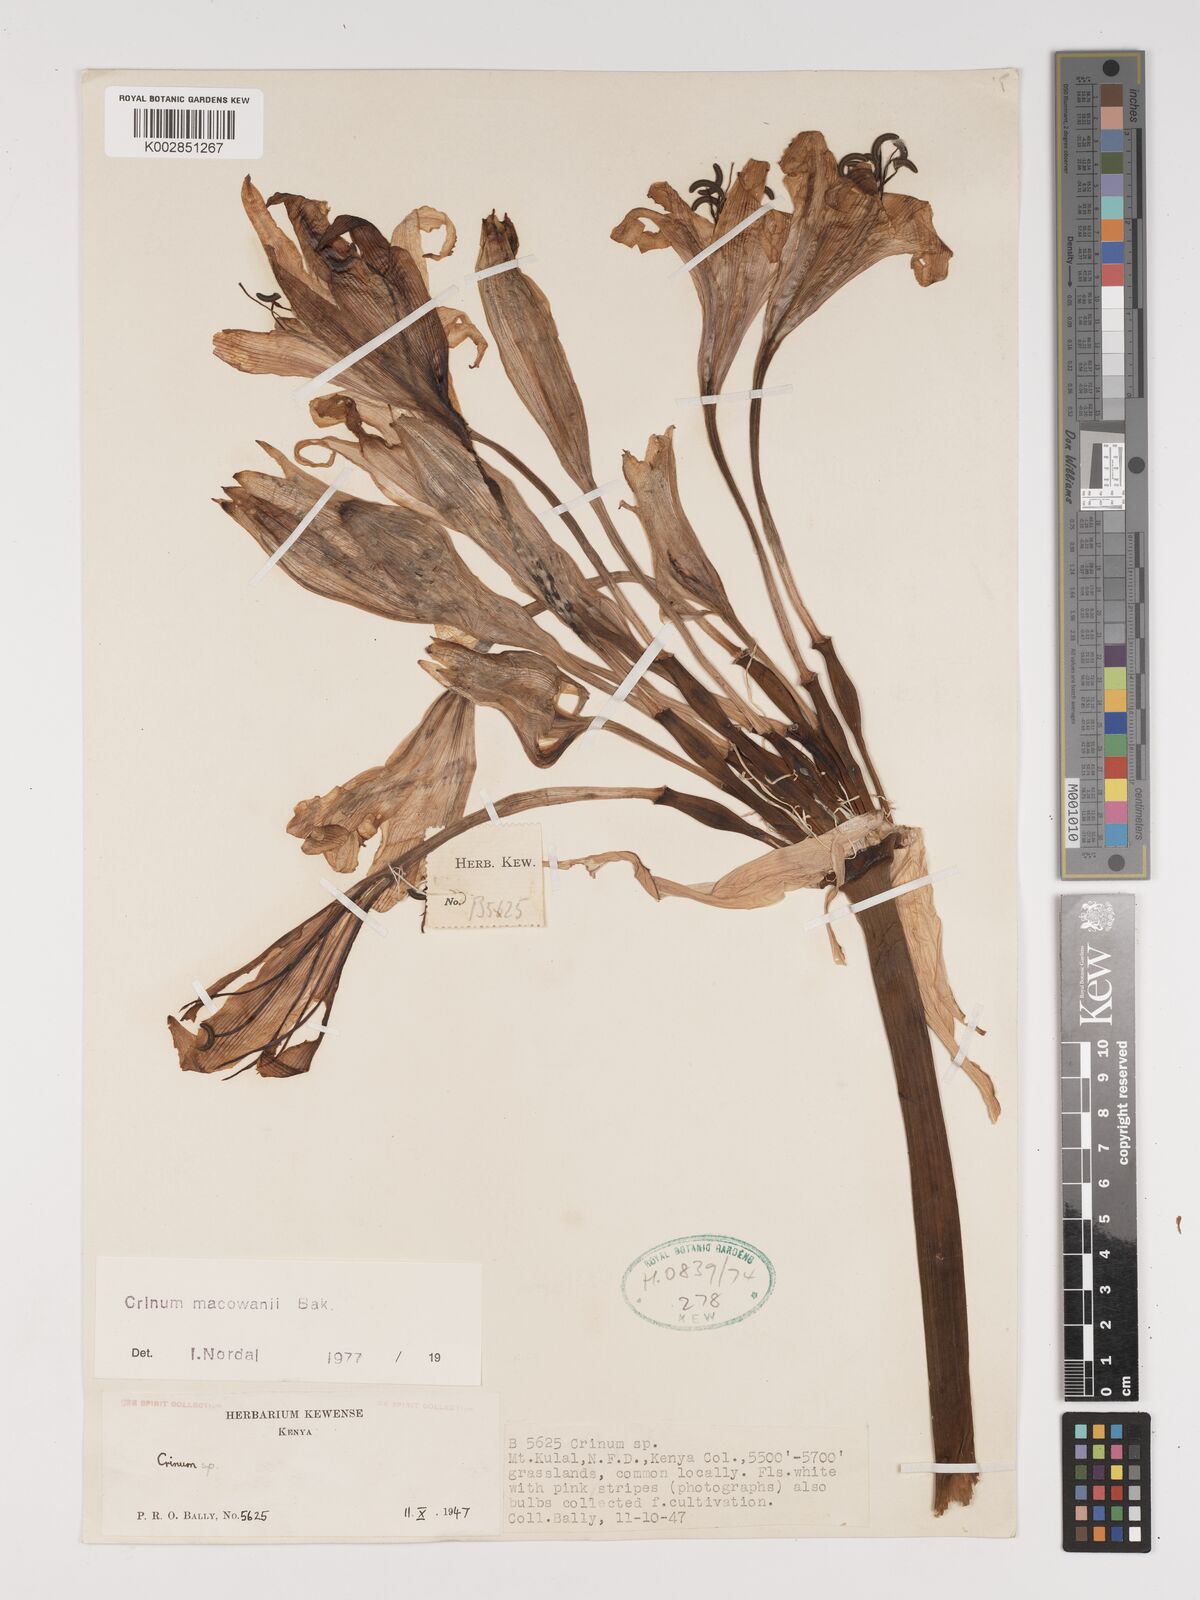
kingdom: Plantae
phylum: Tracheophyta
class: Liliopsida
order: Asparagales
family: Amaryllidaceae
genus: Crinum
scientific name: Crinum macowanii
